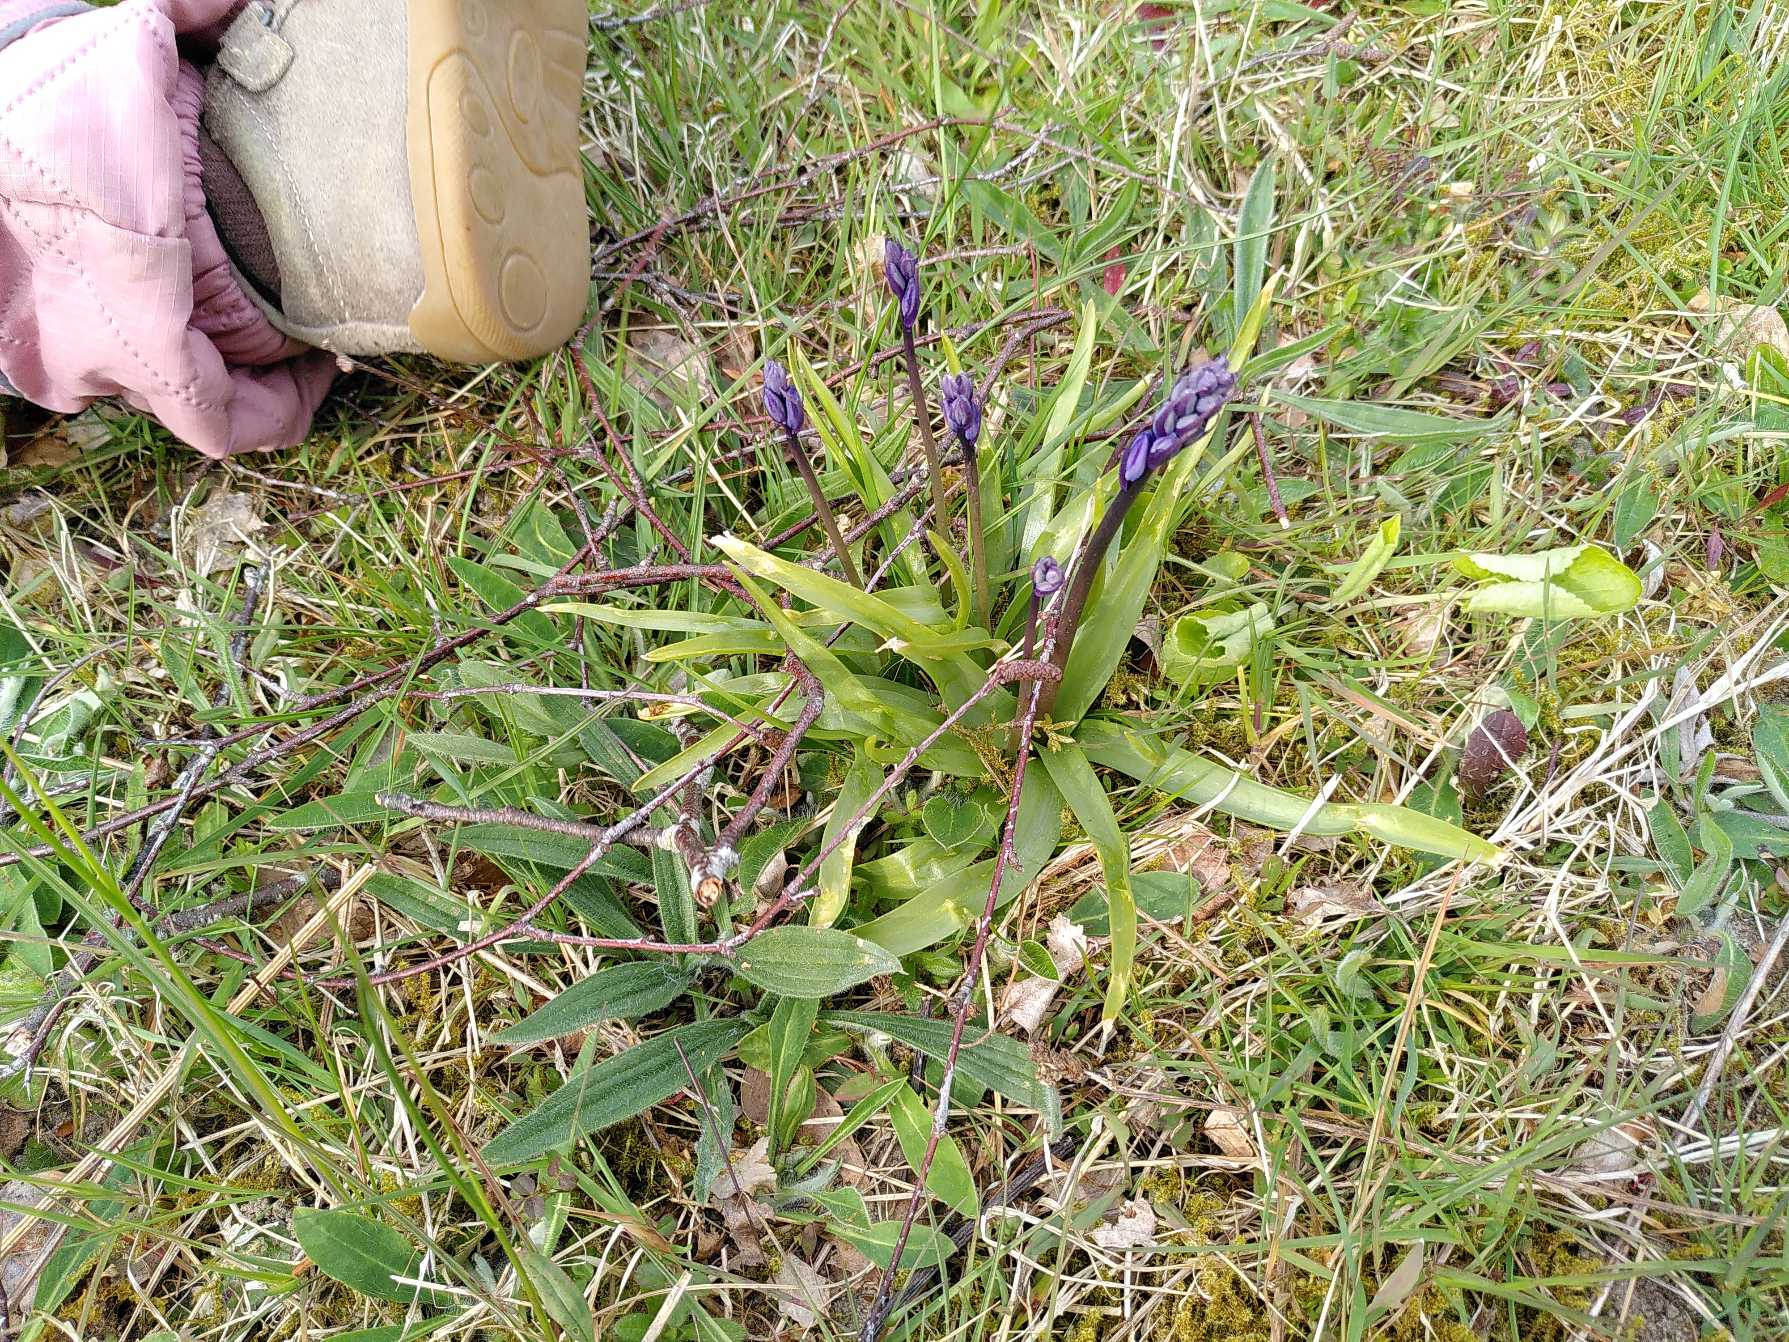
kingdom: Plantae
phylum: Tracheophyta
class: Liliopsida
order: Asparagales
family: Asparagaceae
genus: Hyacinthoides
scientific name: Hyacinthoides
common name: Skilla (Hyacinthoides-slægten)
